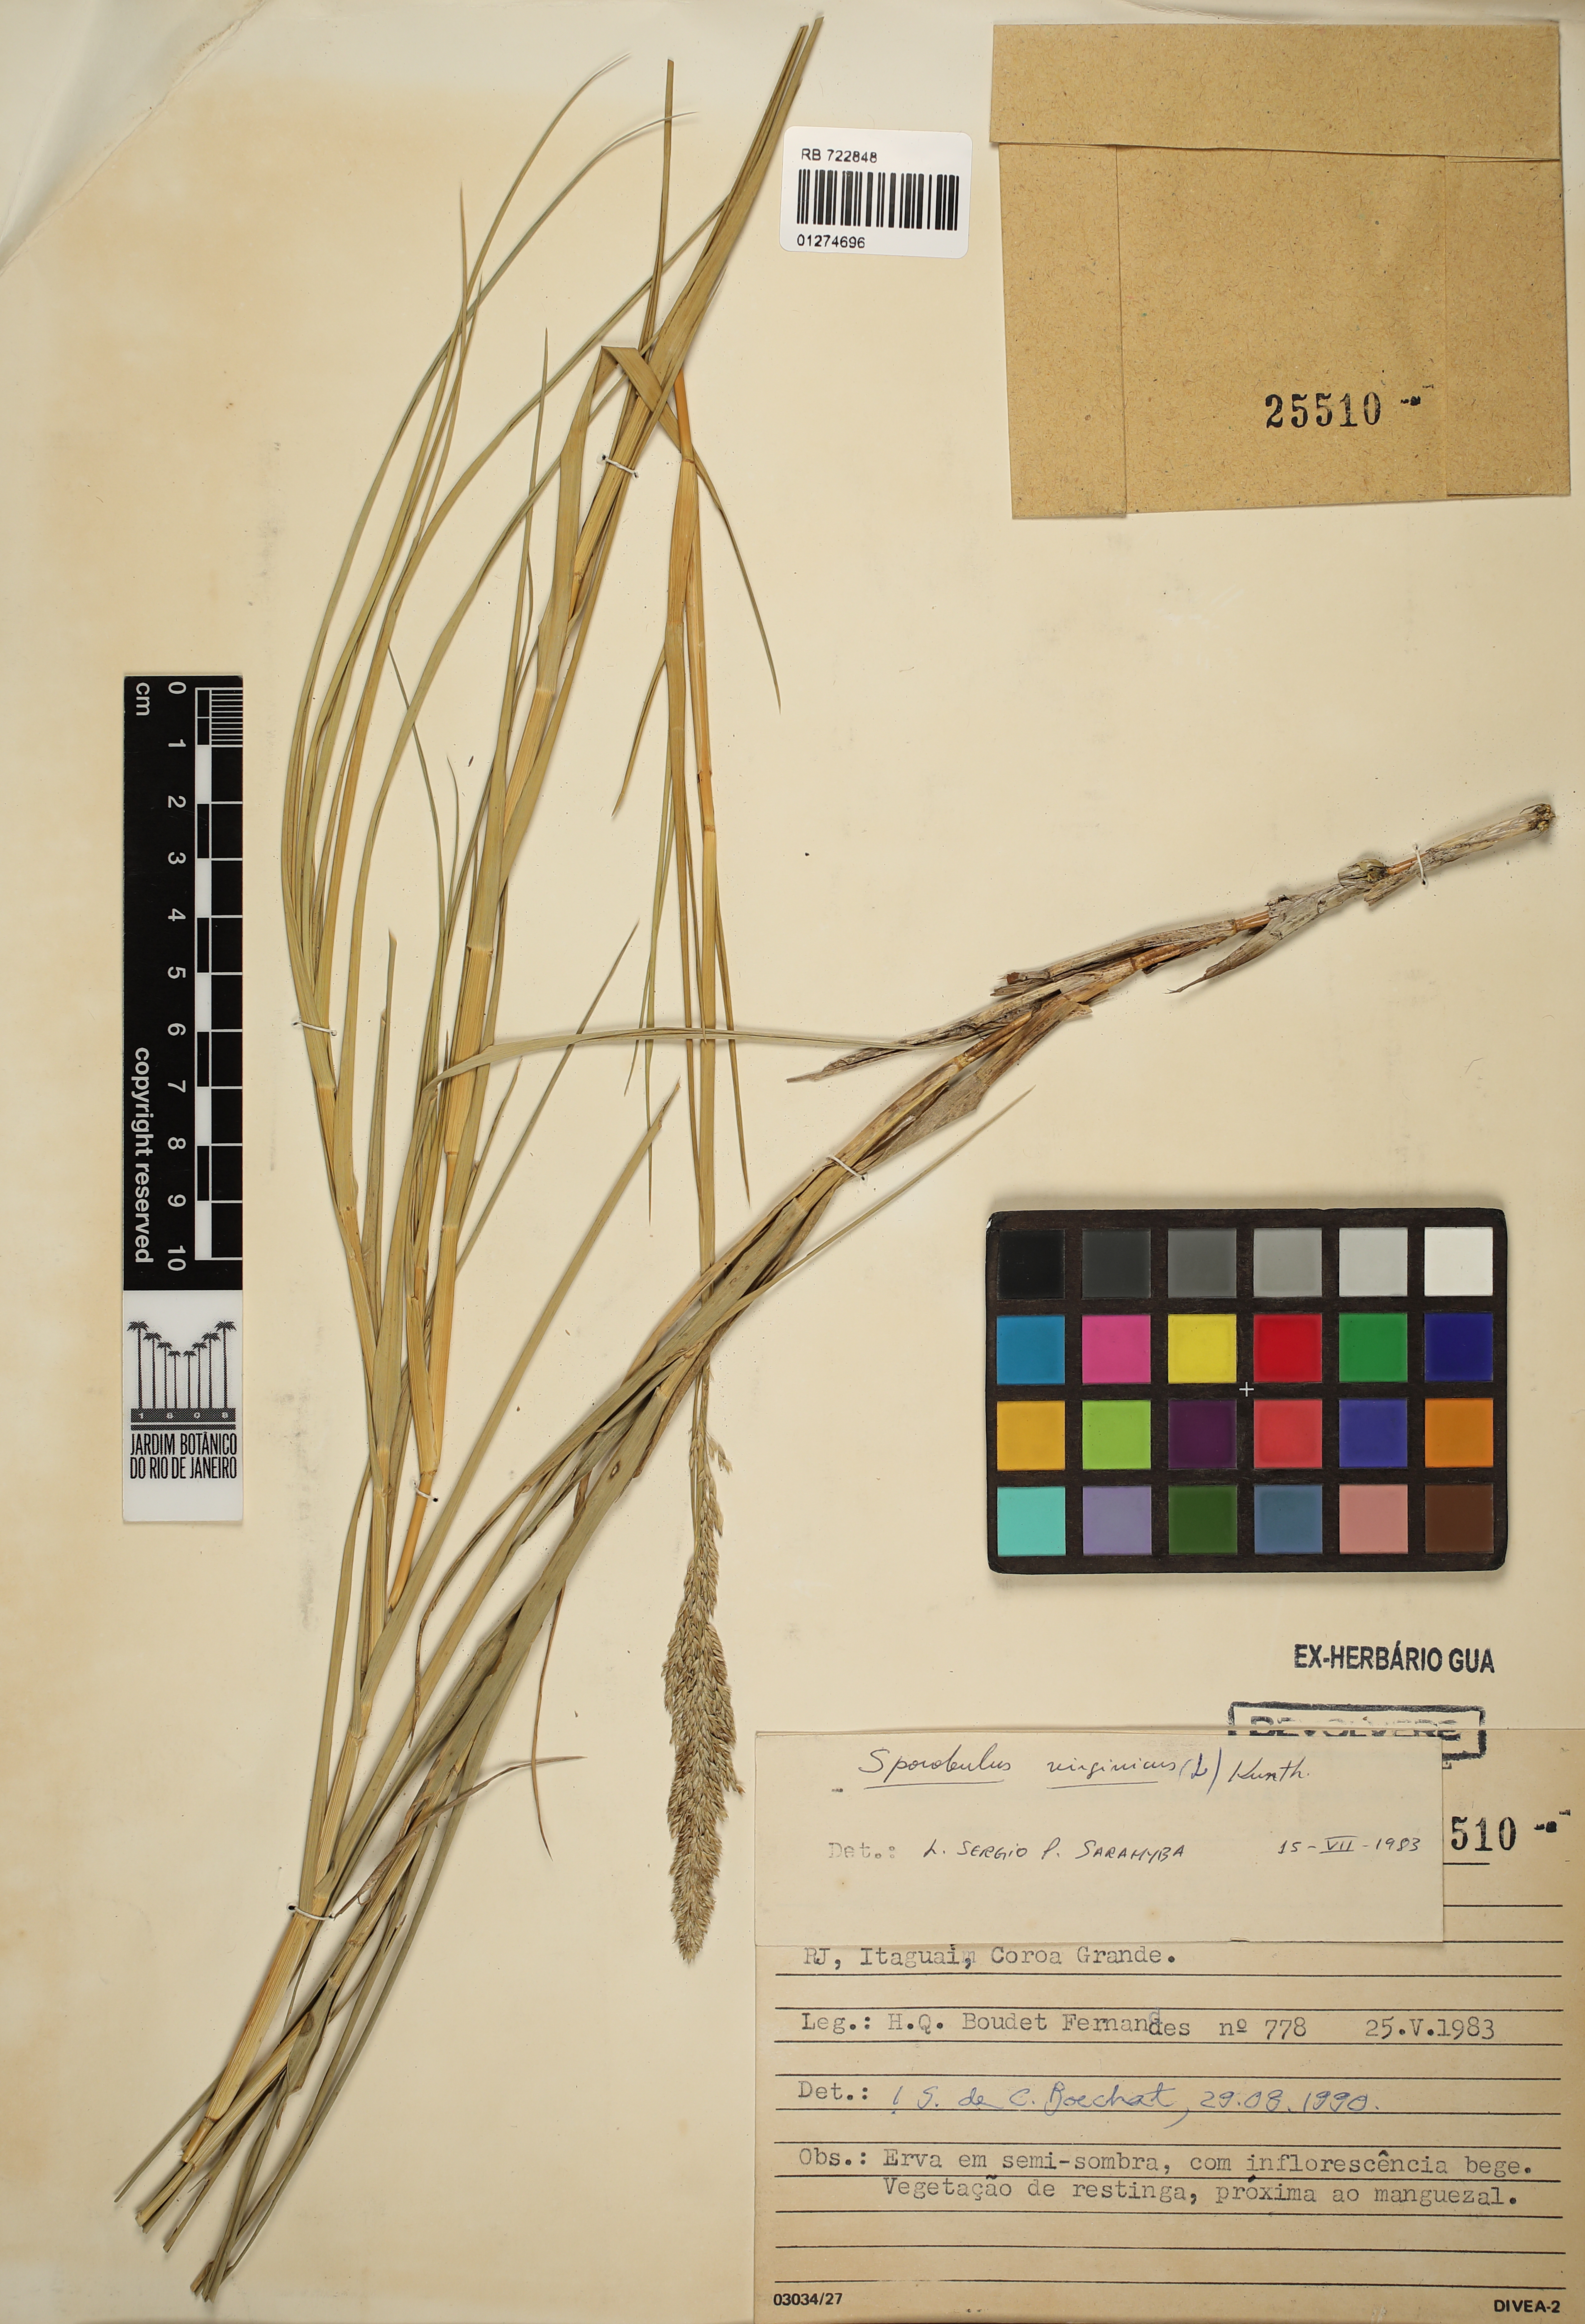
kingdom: Plantae
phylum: Tracheophyta
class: Liliopsida
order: Poales
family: Poaceae
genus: Sporobolus
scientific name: Sporobolus virginicus
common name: Beach dropseed
